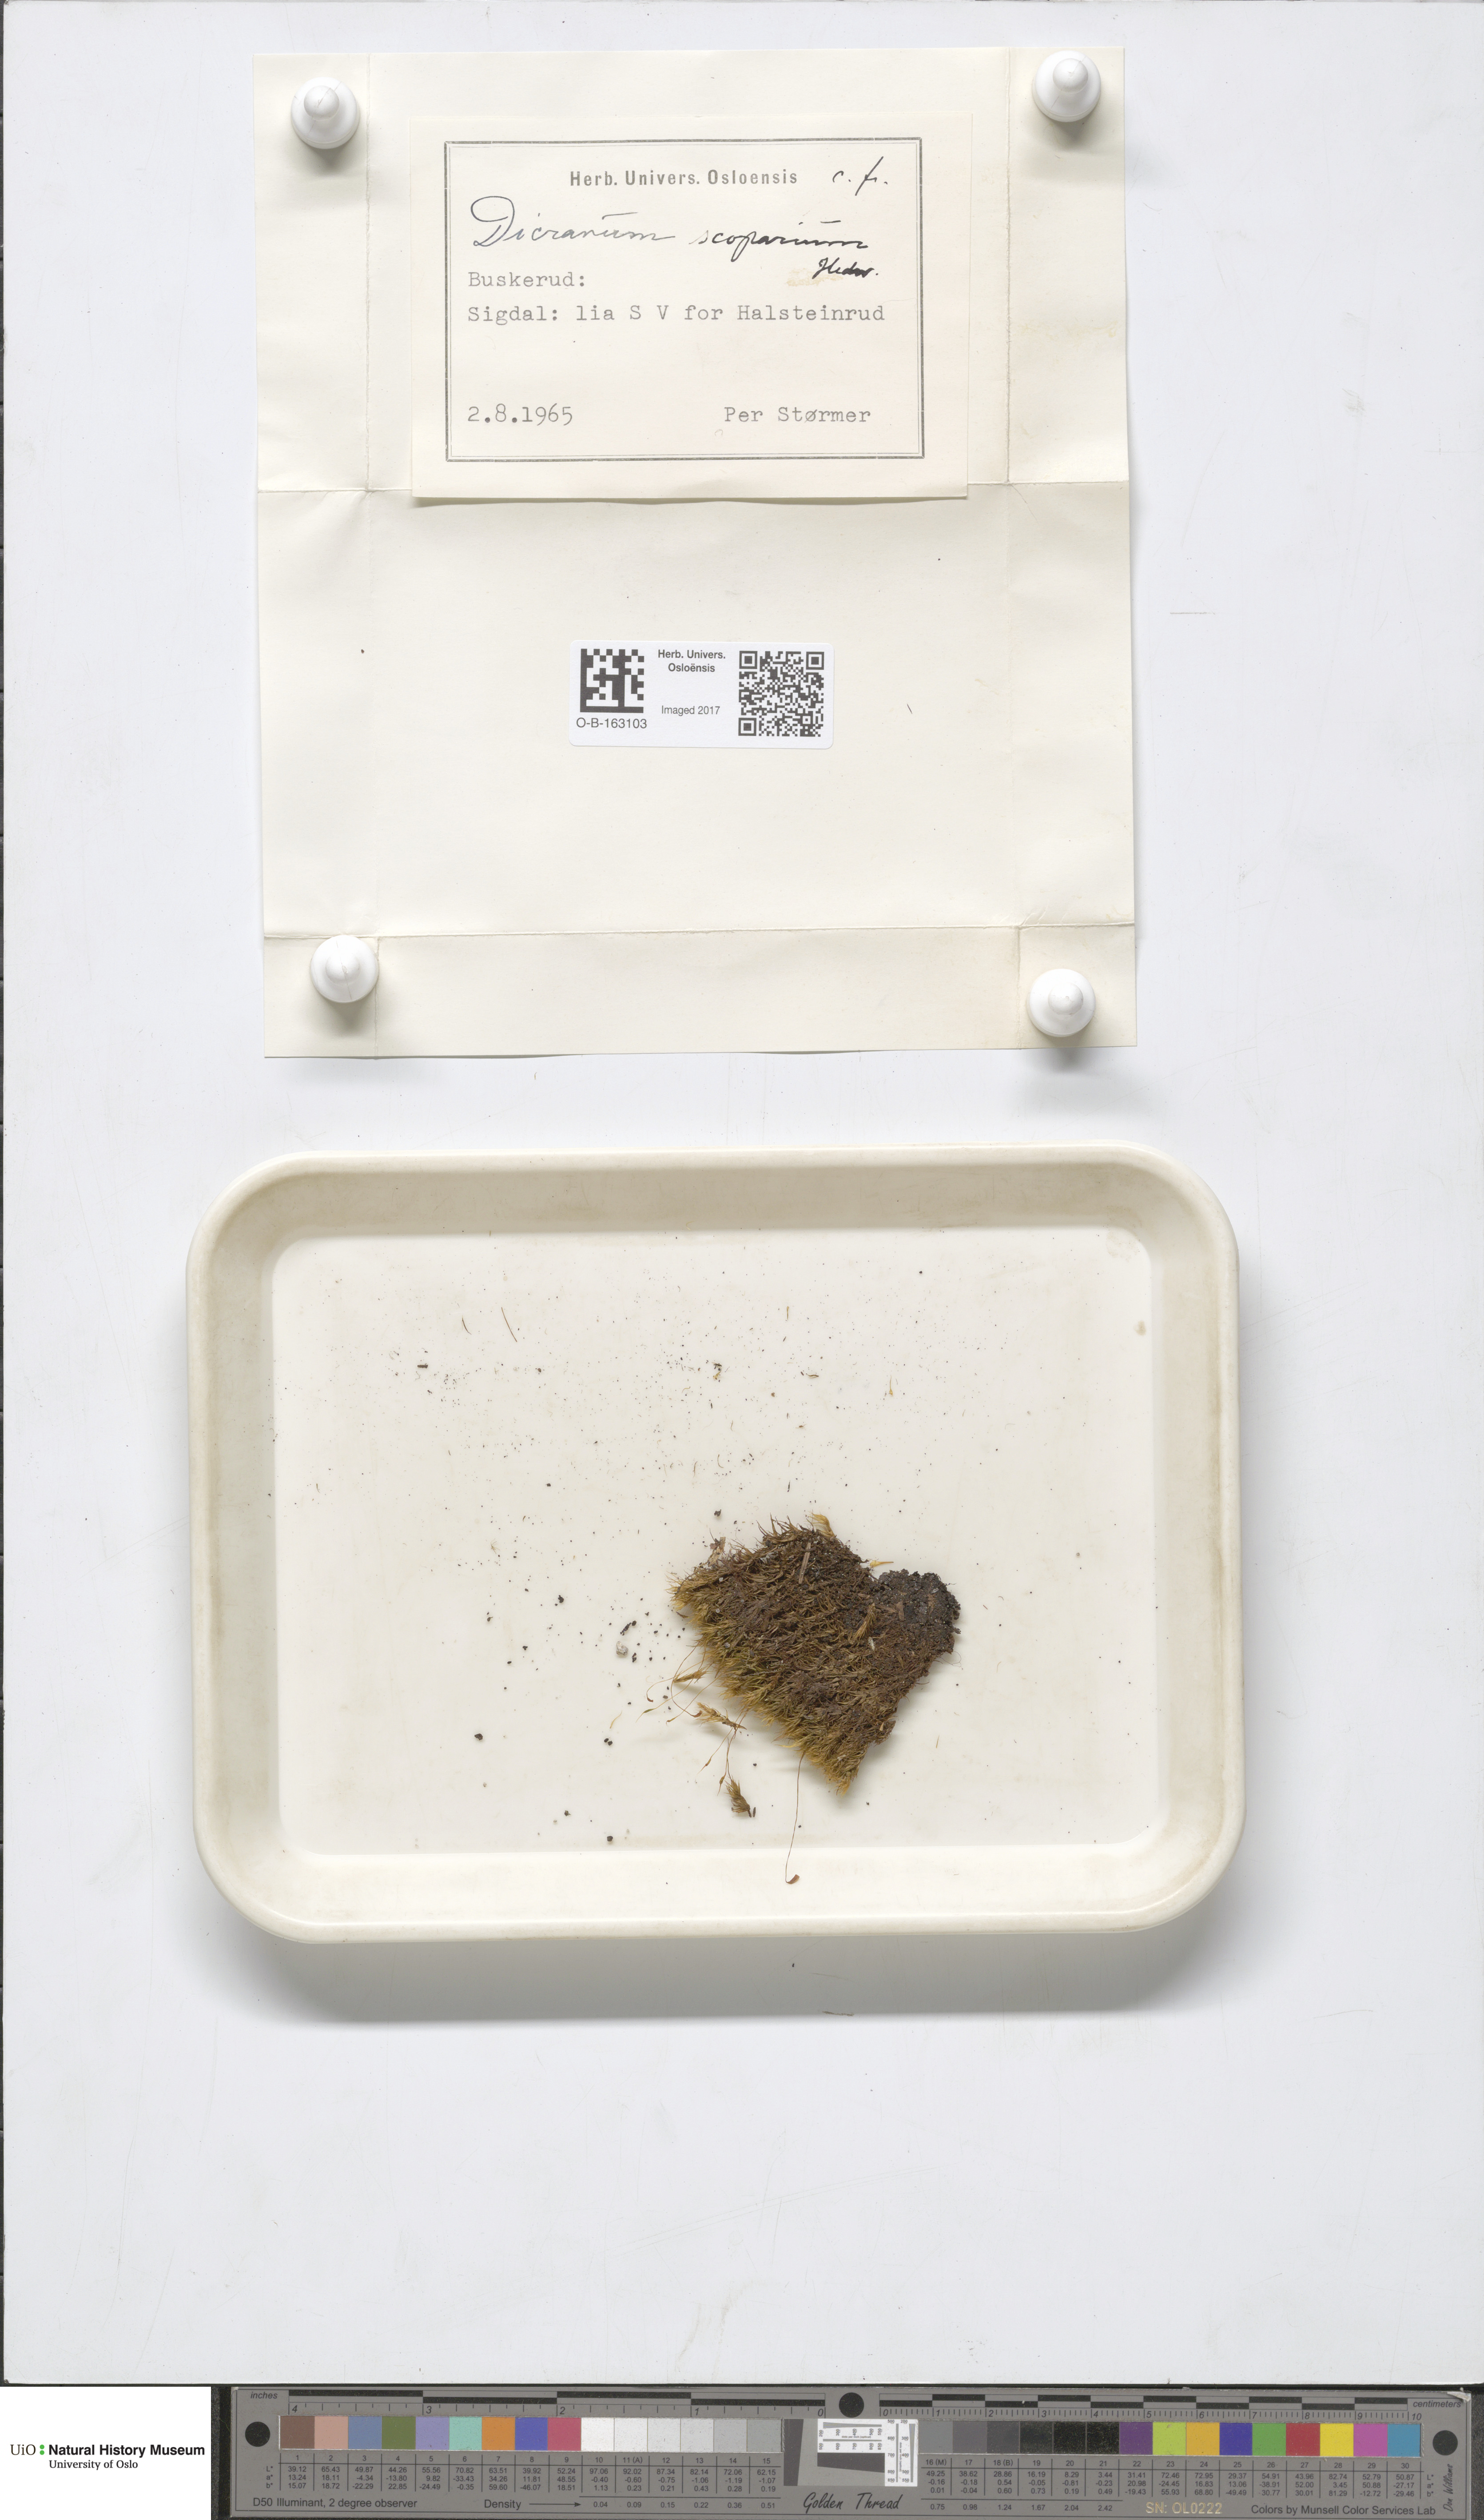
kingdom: Plantae
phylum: Bryophyta
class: Bryopsida
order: Dicranales
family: Dicranaceae
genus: Dicranum
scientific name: Dicranum scoparium
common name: Broom fork-moss
